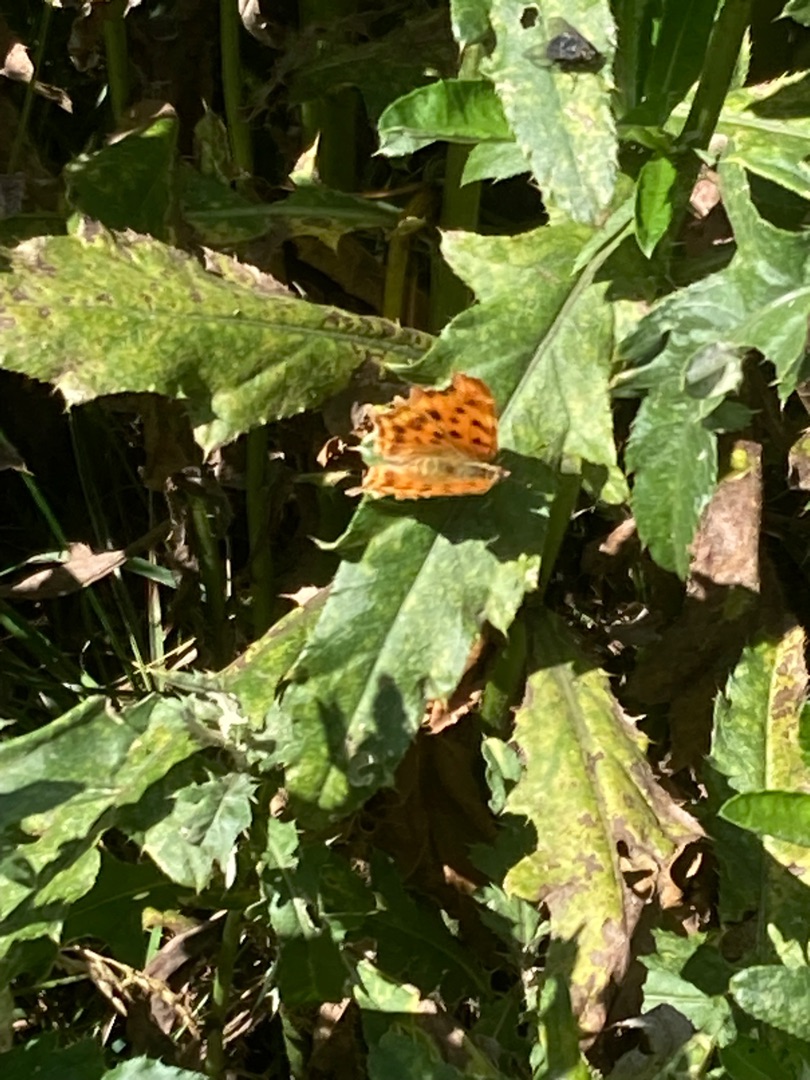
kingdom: Animalia
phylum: Arthropoda
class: Insecta
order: Lepidoptera
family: Nymphalidae
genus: Polygonia
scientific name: Polygonia c-album
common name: Det hvide C
